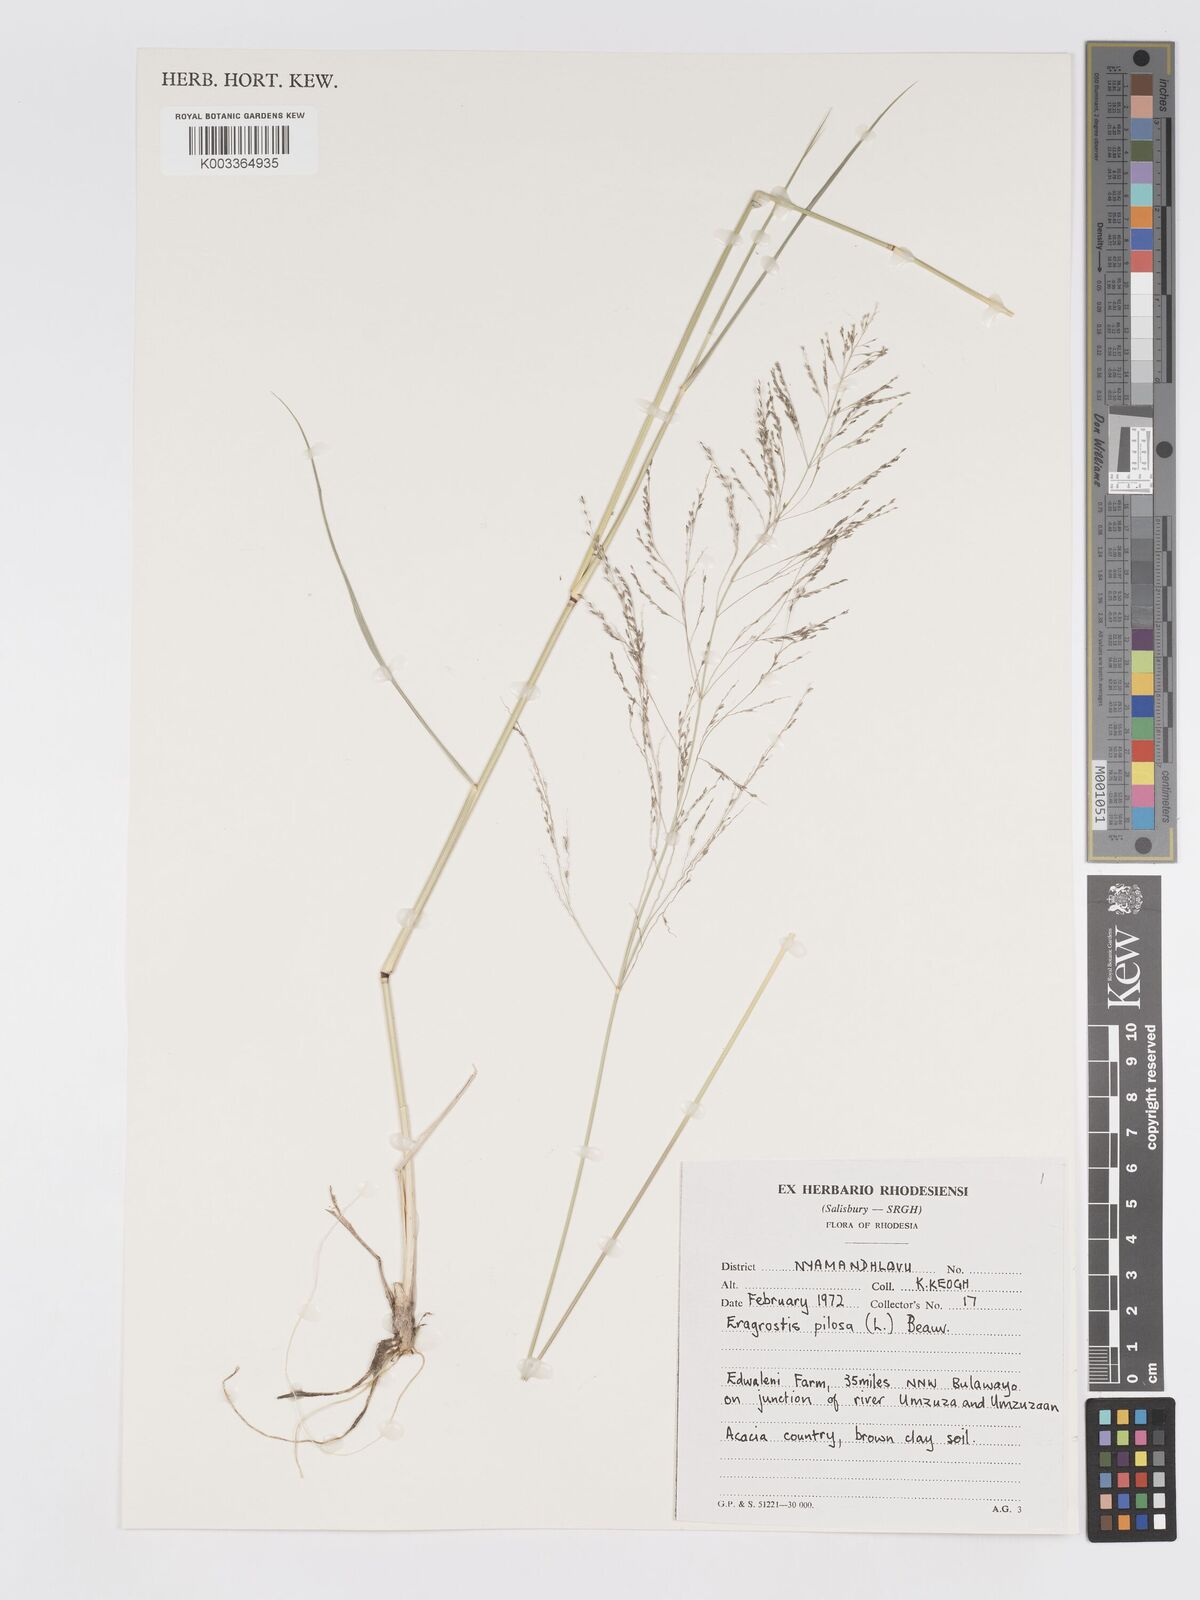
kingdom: Plantae
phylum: Tracheophyta
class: Liliopsida
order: Poales
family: Poaceae
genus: Eragrostis
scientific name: Eragrostis pilosa
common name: Indian lovegrass
